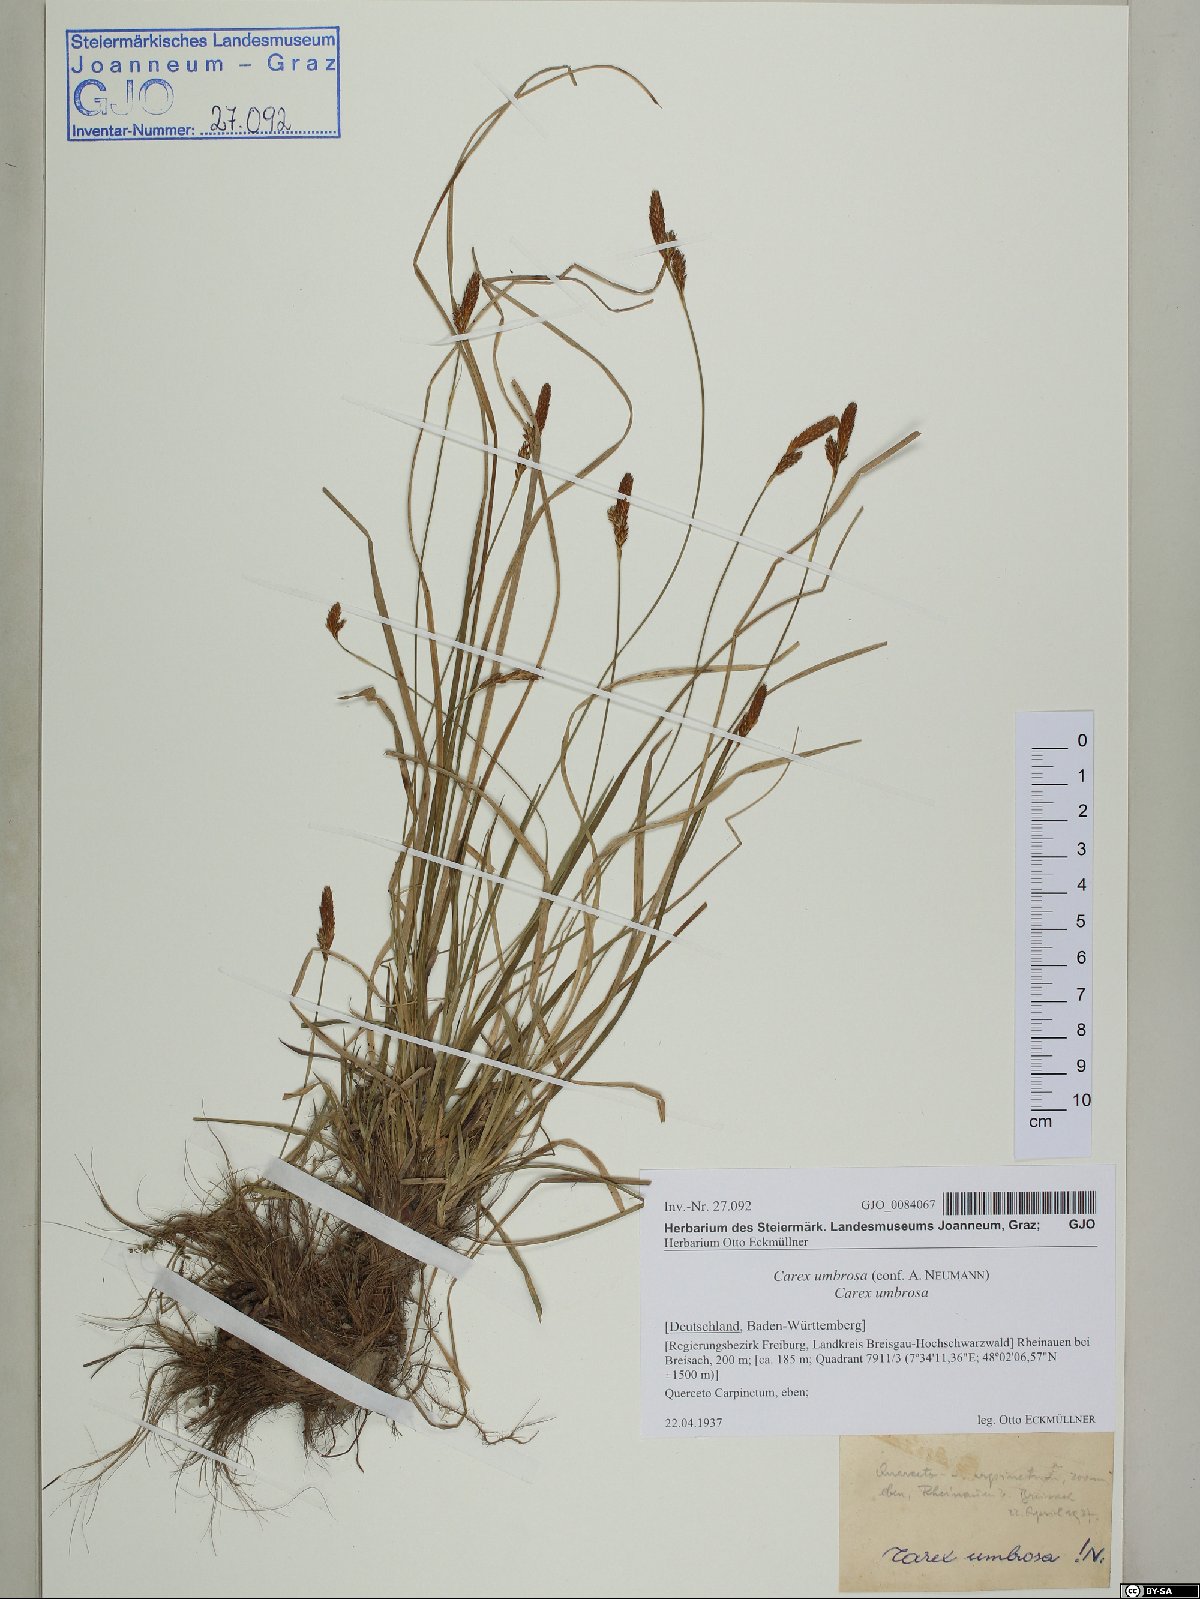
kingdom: Plantae
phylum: Tracheophyta
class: Liliopsida
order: Poales
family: Cyperaceae
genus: Carex
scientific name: Carex umbrosa
